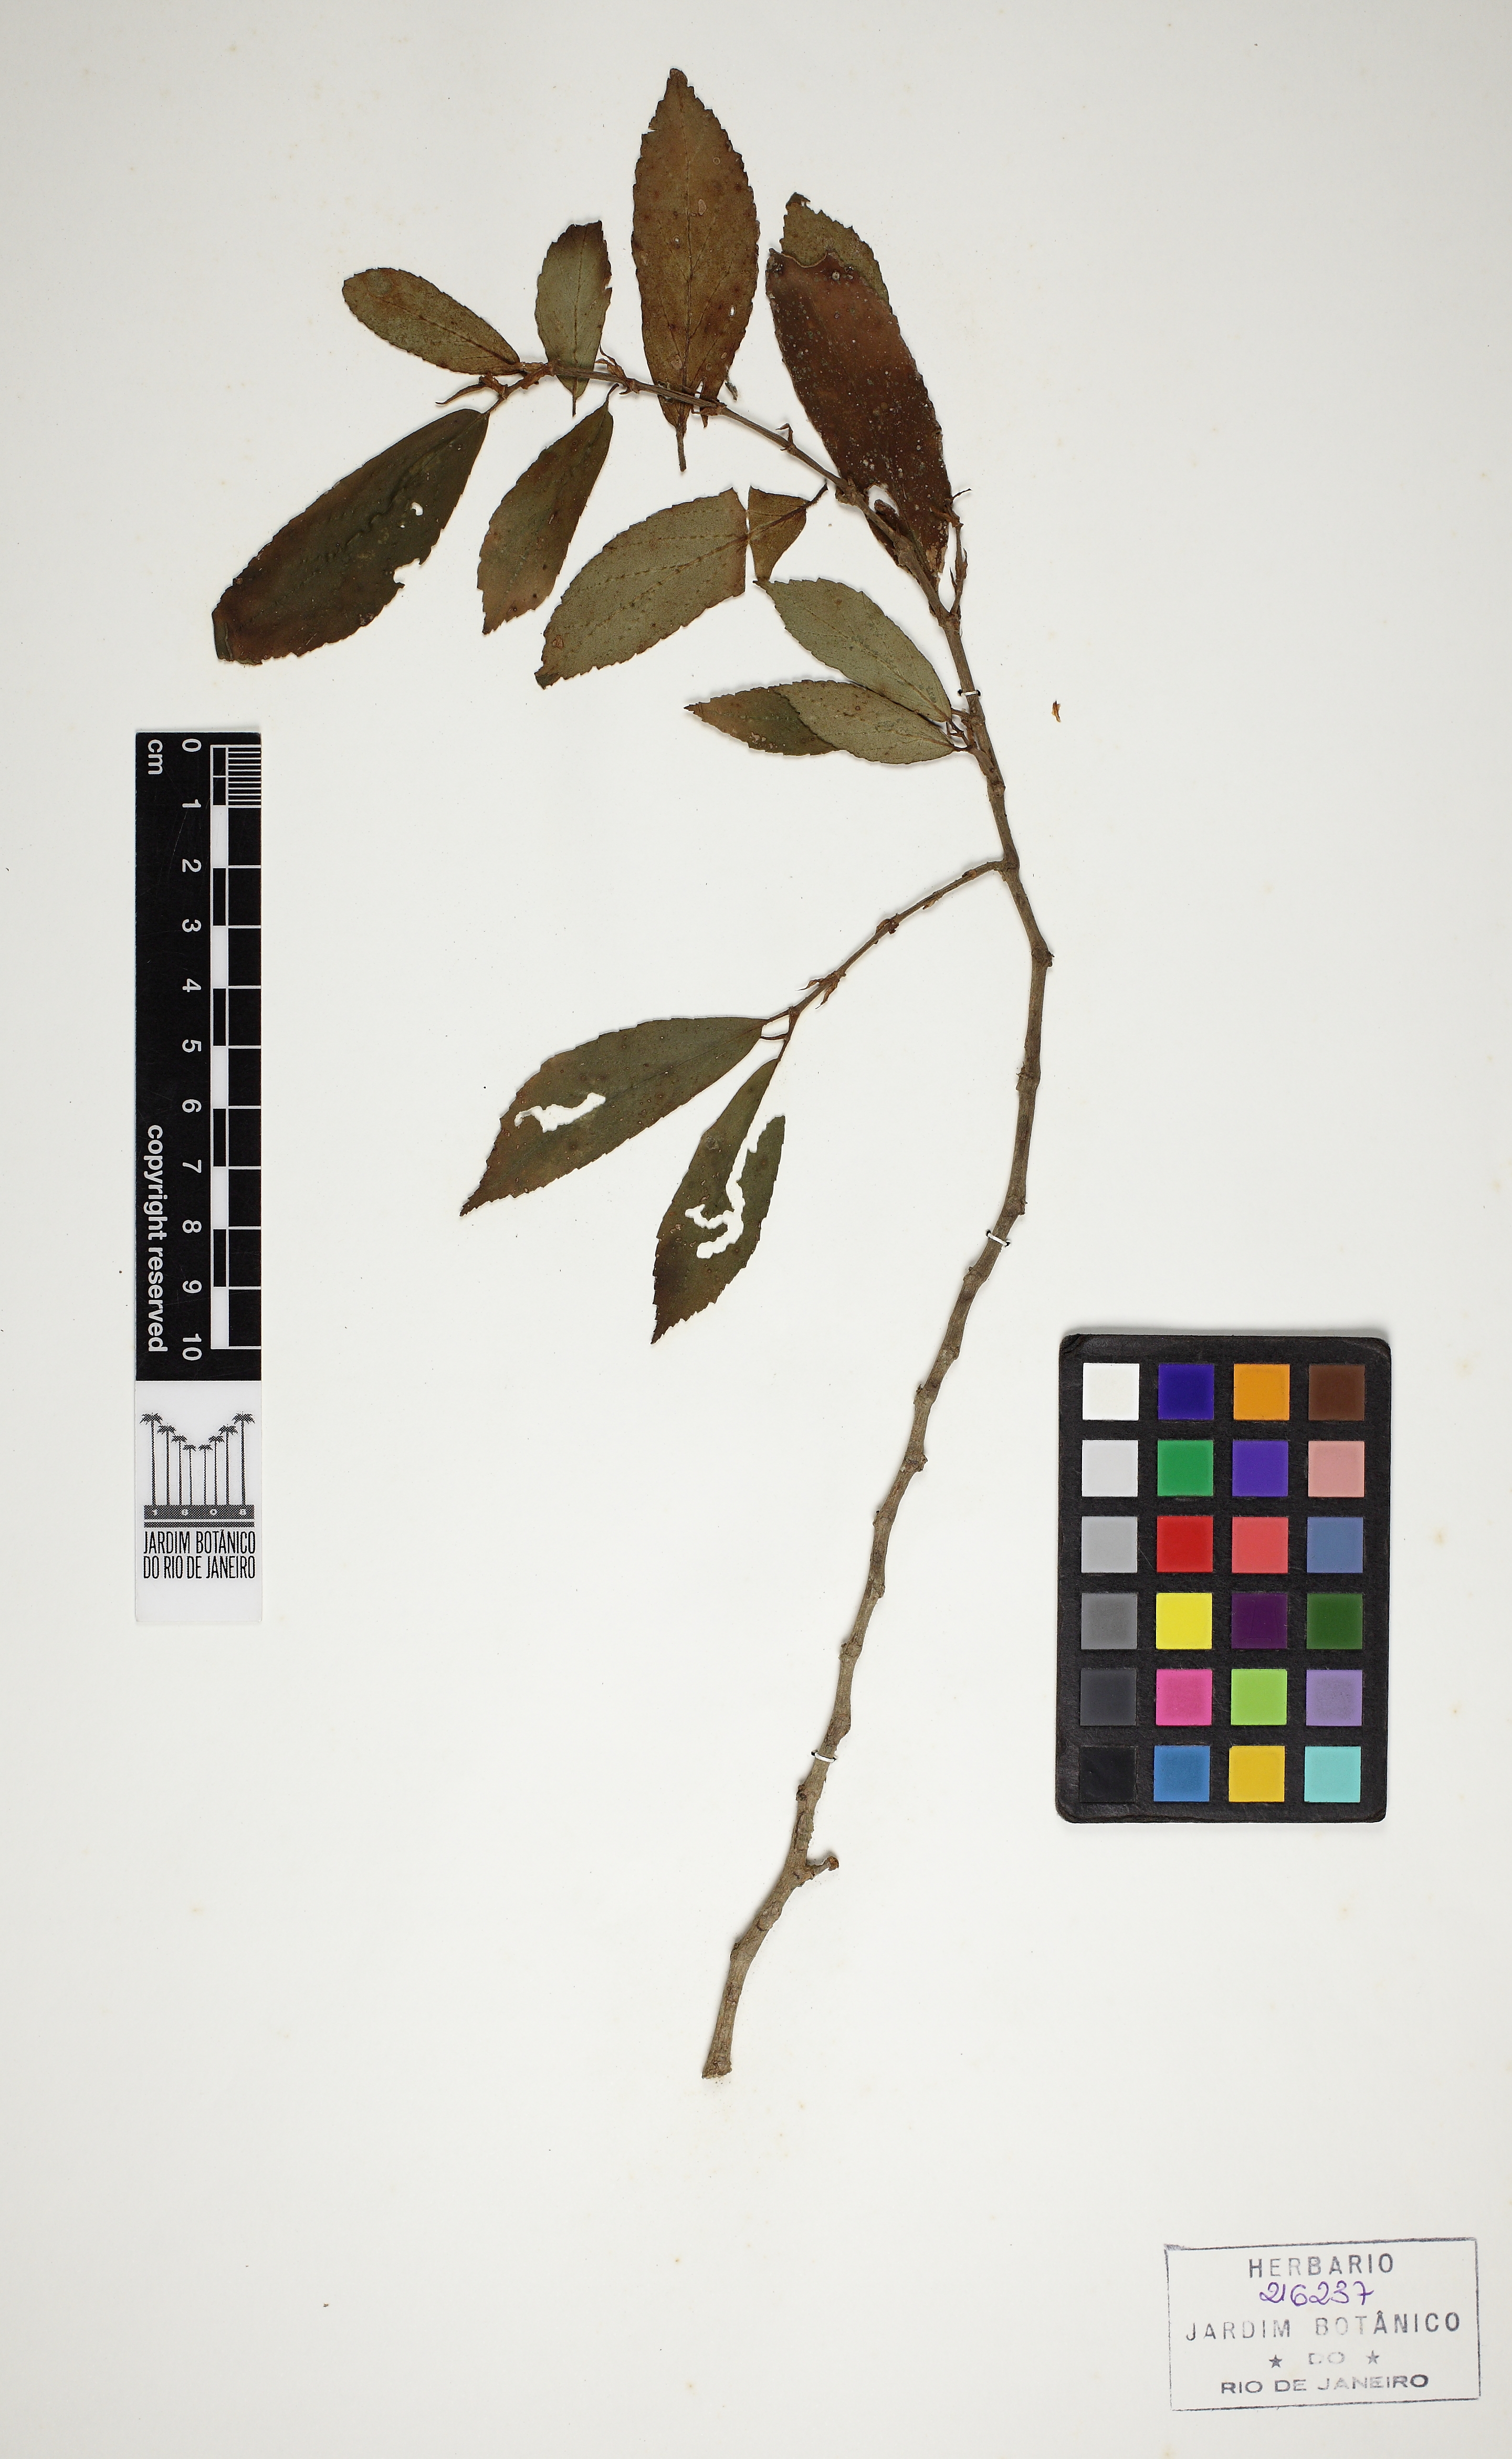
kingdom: Plantae
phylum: Tracheophyta
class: Magnoliopsida
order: Cucurbitales
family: Begoniaceae
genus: Begonia
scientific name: Begonia fruticosa
